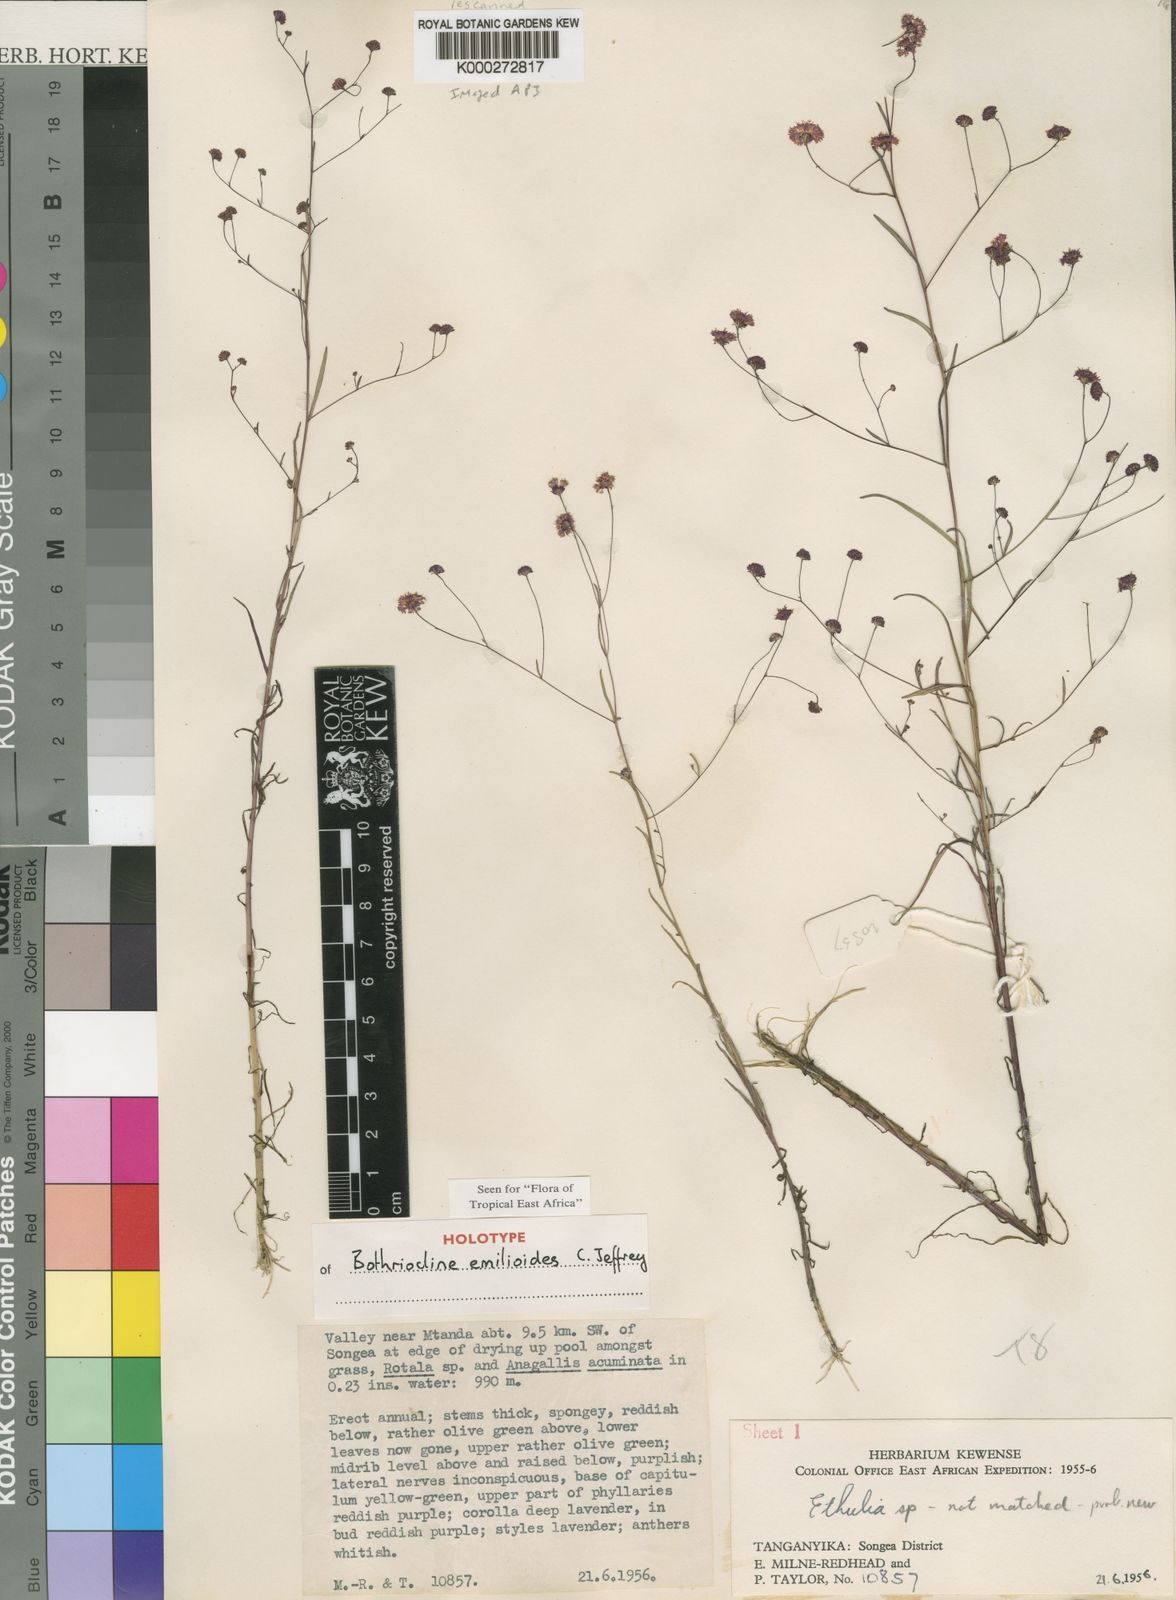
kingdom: Plantae
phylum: Tracheophyta
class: Magnoliopsida
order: Asterales
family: Asteraceae
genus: Bothriocline
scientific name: Bothriocline emilioides
